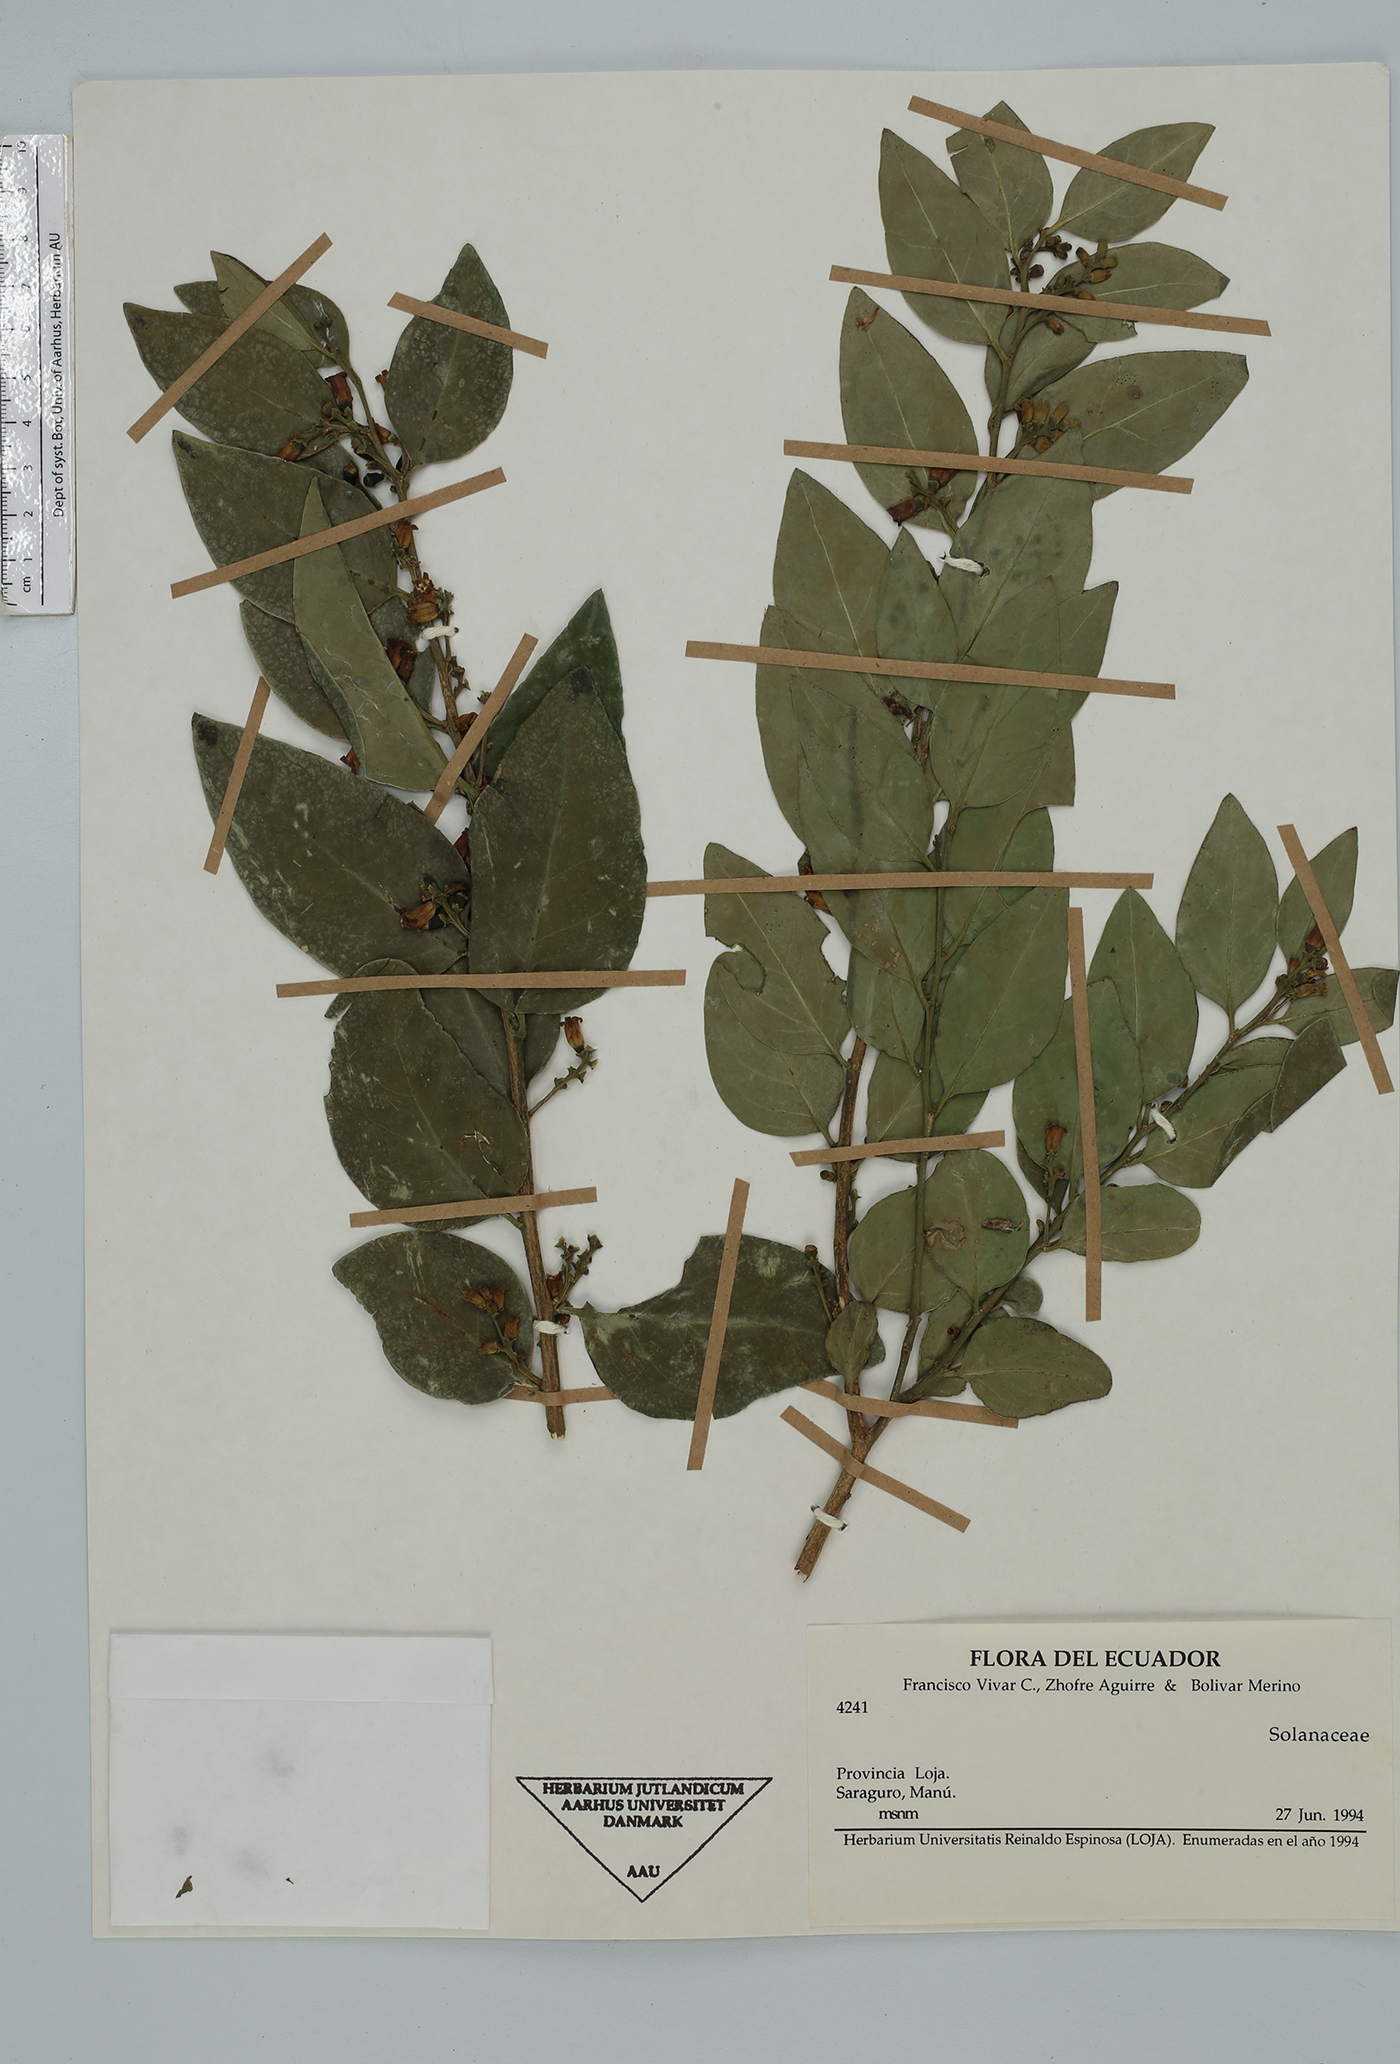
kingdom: Plantae
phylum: Tracheophyta
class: Magnoliopsida
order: Solanales
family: Solanaceae
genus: Cestrum
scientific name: Cestrum
